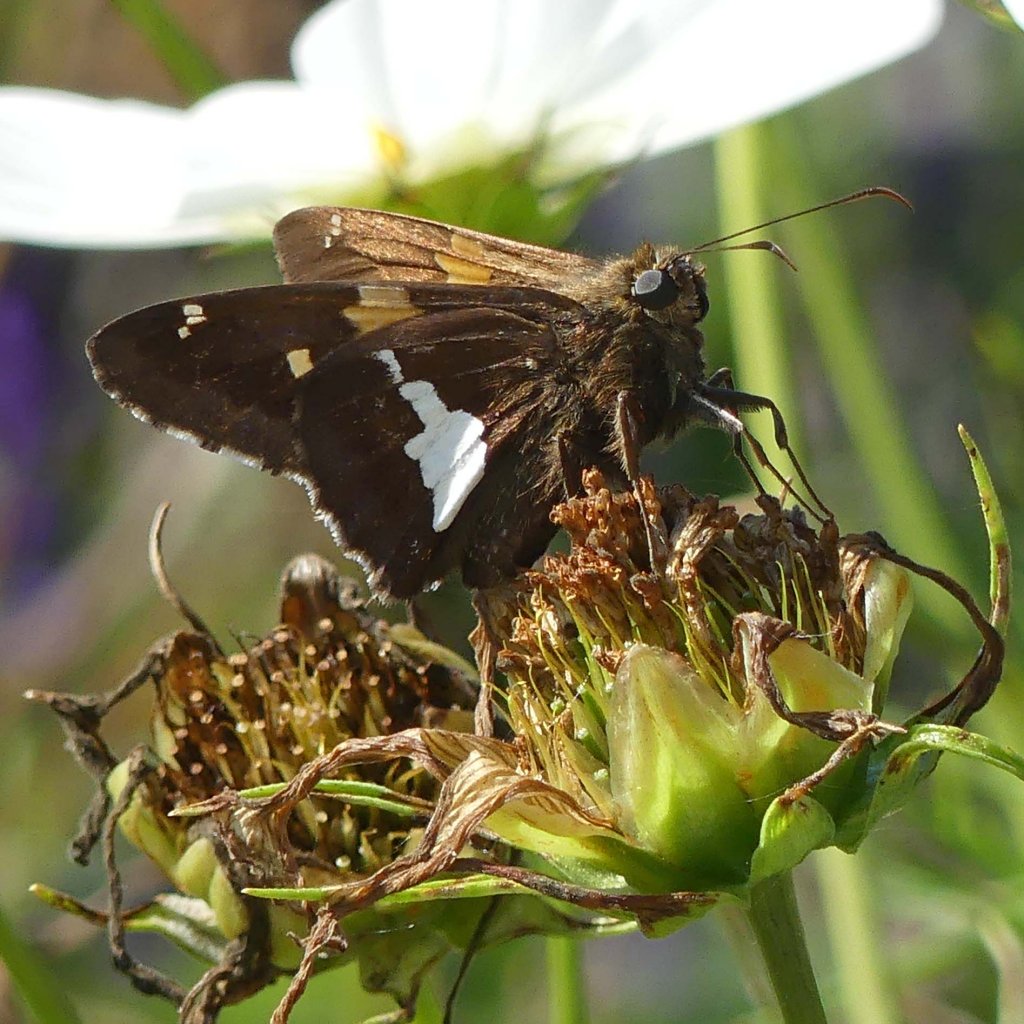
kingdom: Animalia
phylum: Arthropoda
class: Insecta
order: Lepidoptera
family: Hesperiidae
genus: Epargyreus
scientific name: Epargyreus clarus
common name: Silver-spotted Skipper
